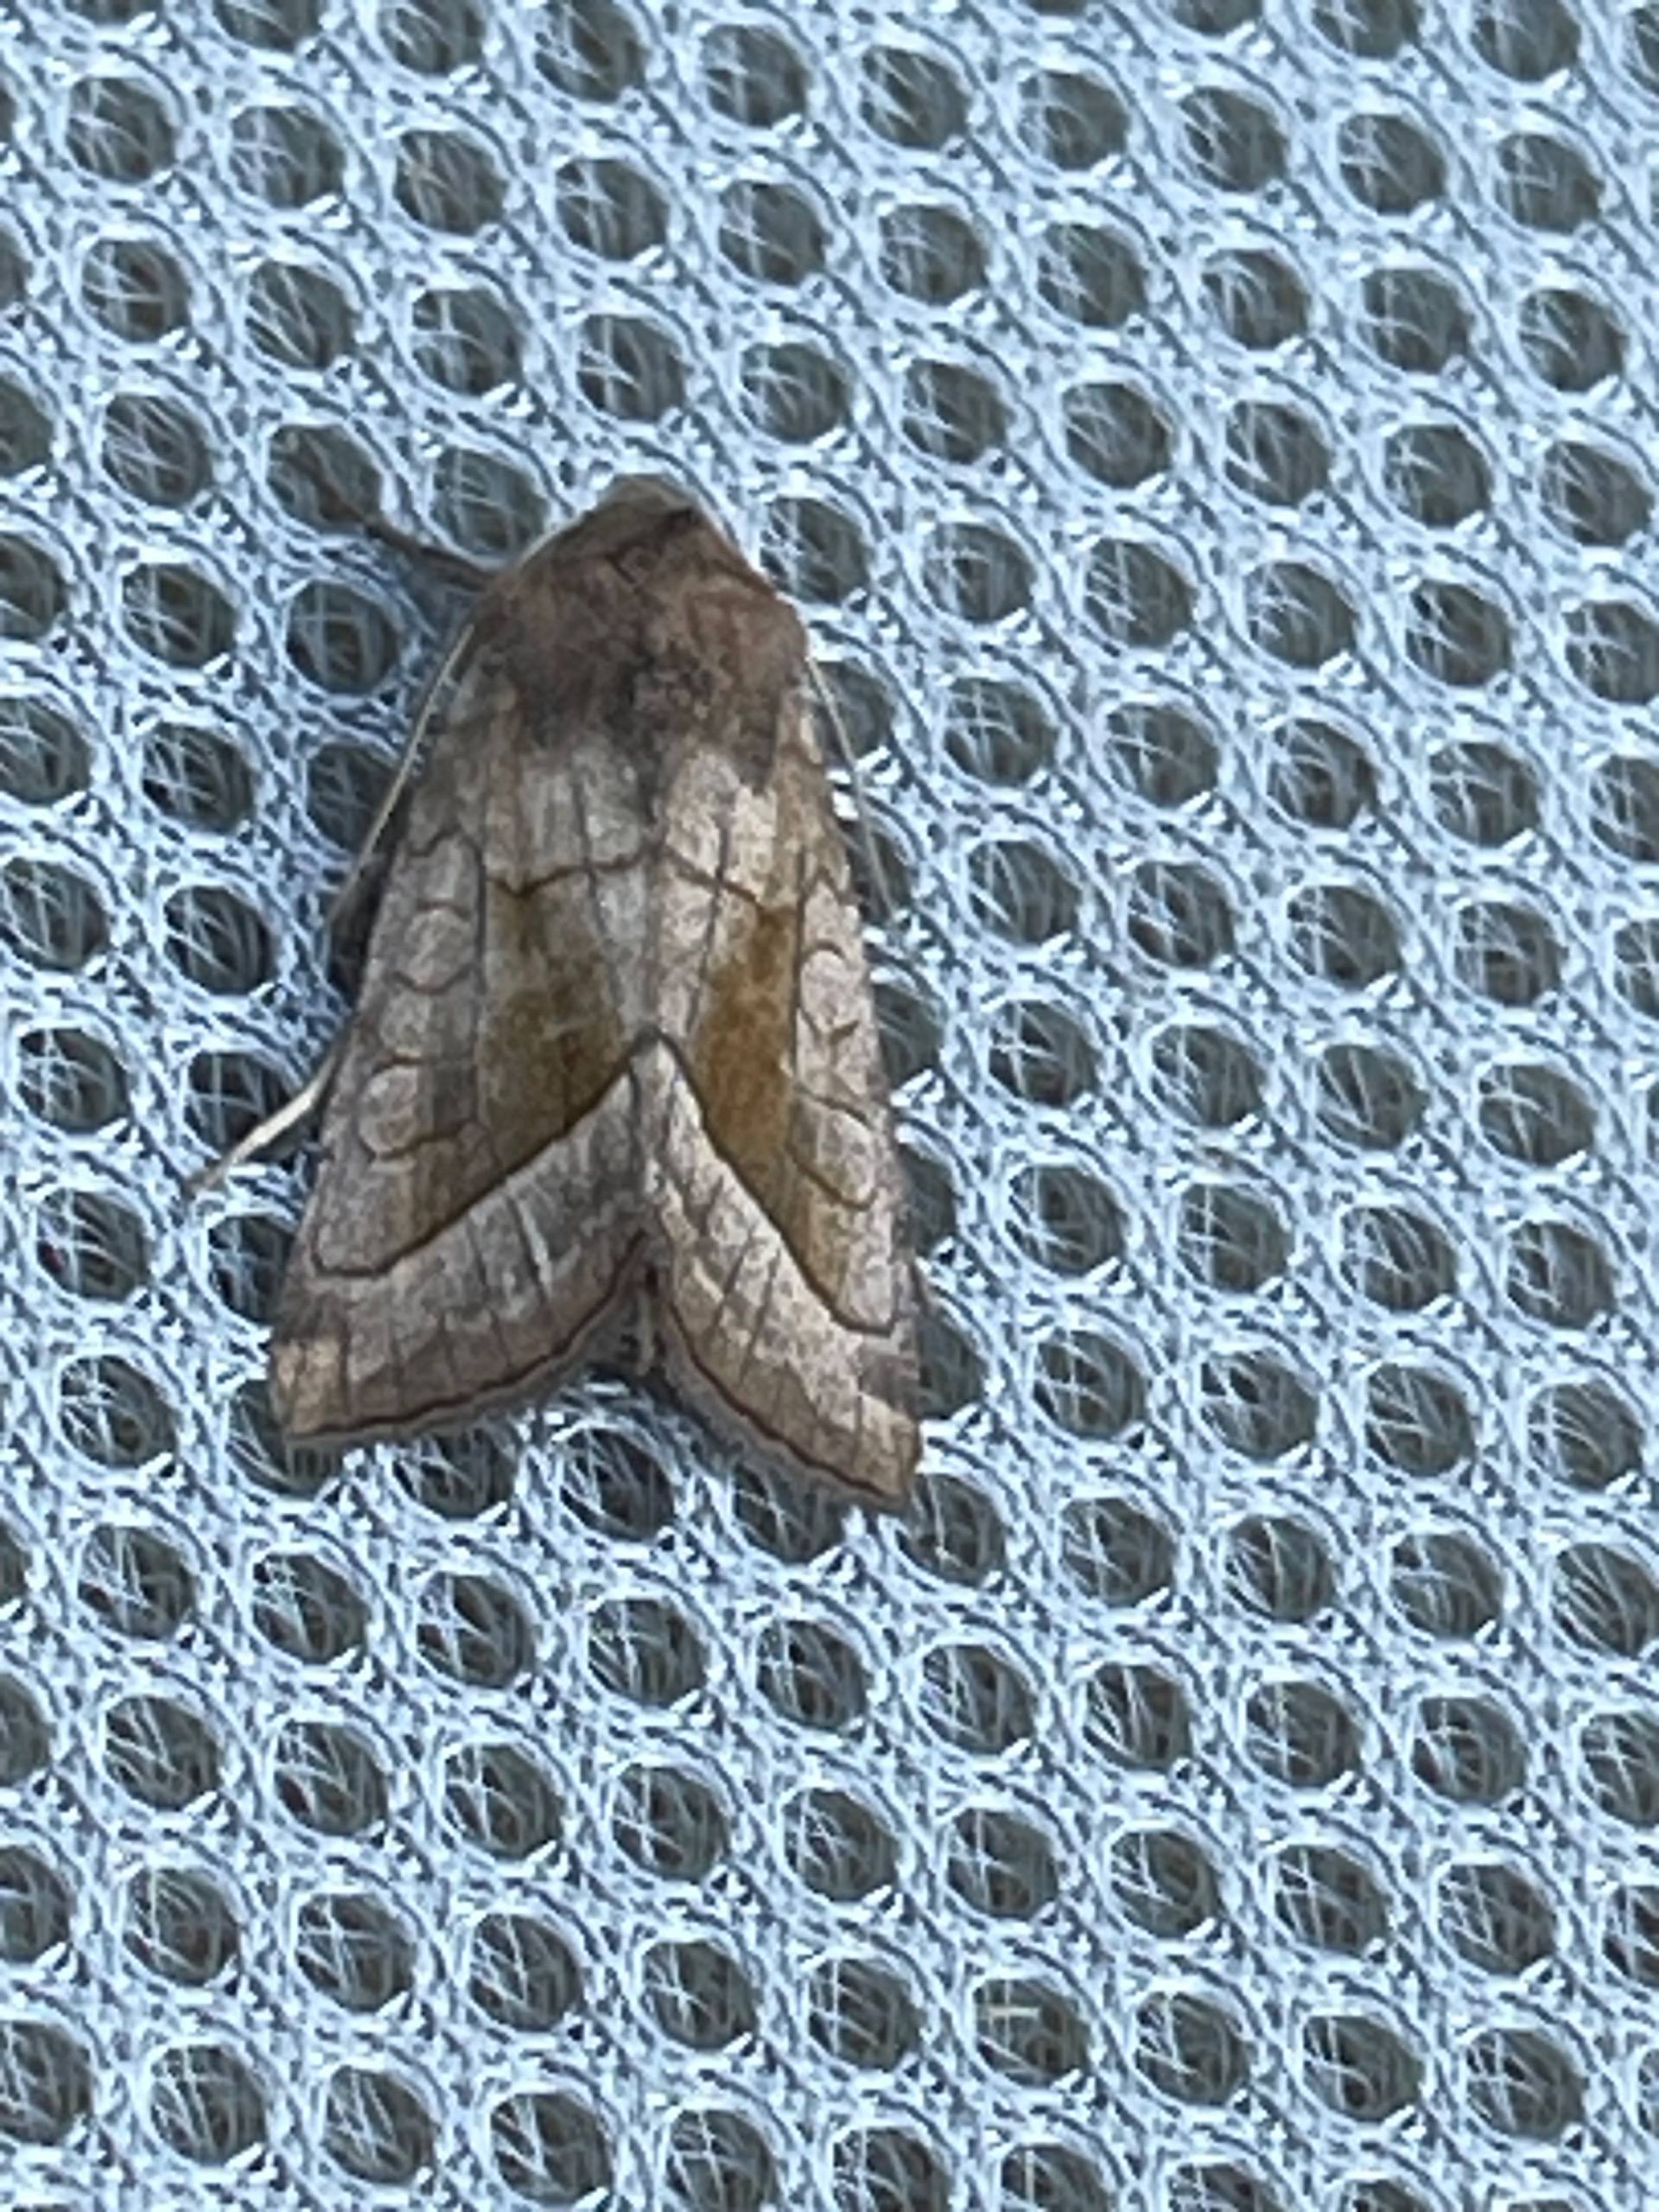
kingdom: Animalia
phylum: Arthropoda
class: Insecta
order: Lepidoptera
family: Noctuidae
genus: Hydraecia
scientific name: Hydraecia micacea
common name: Kartoffelborer
